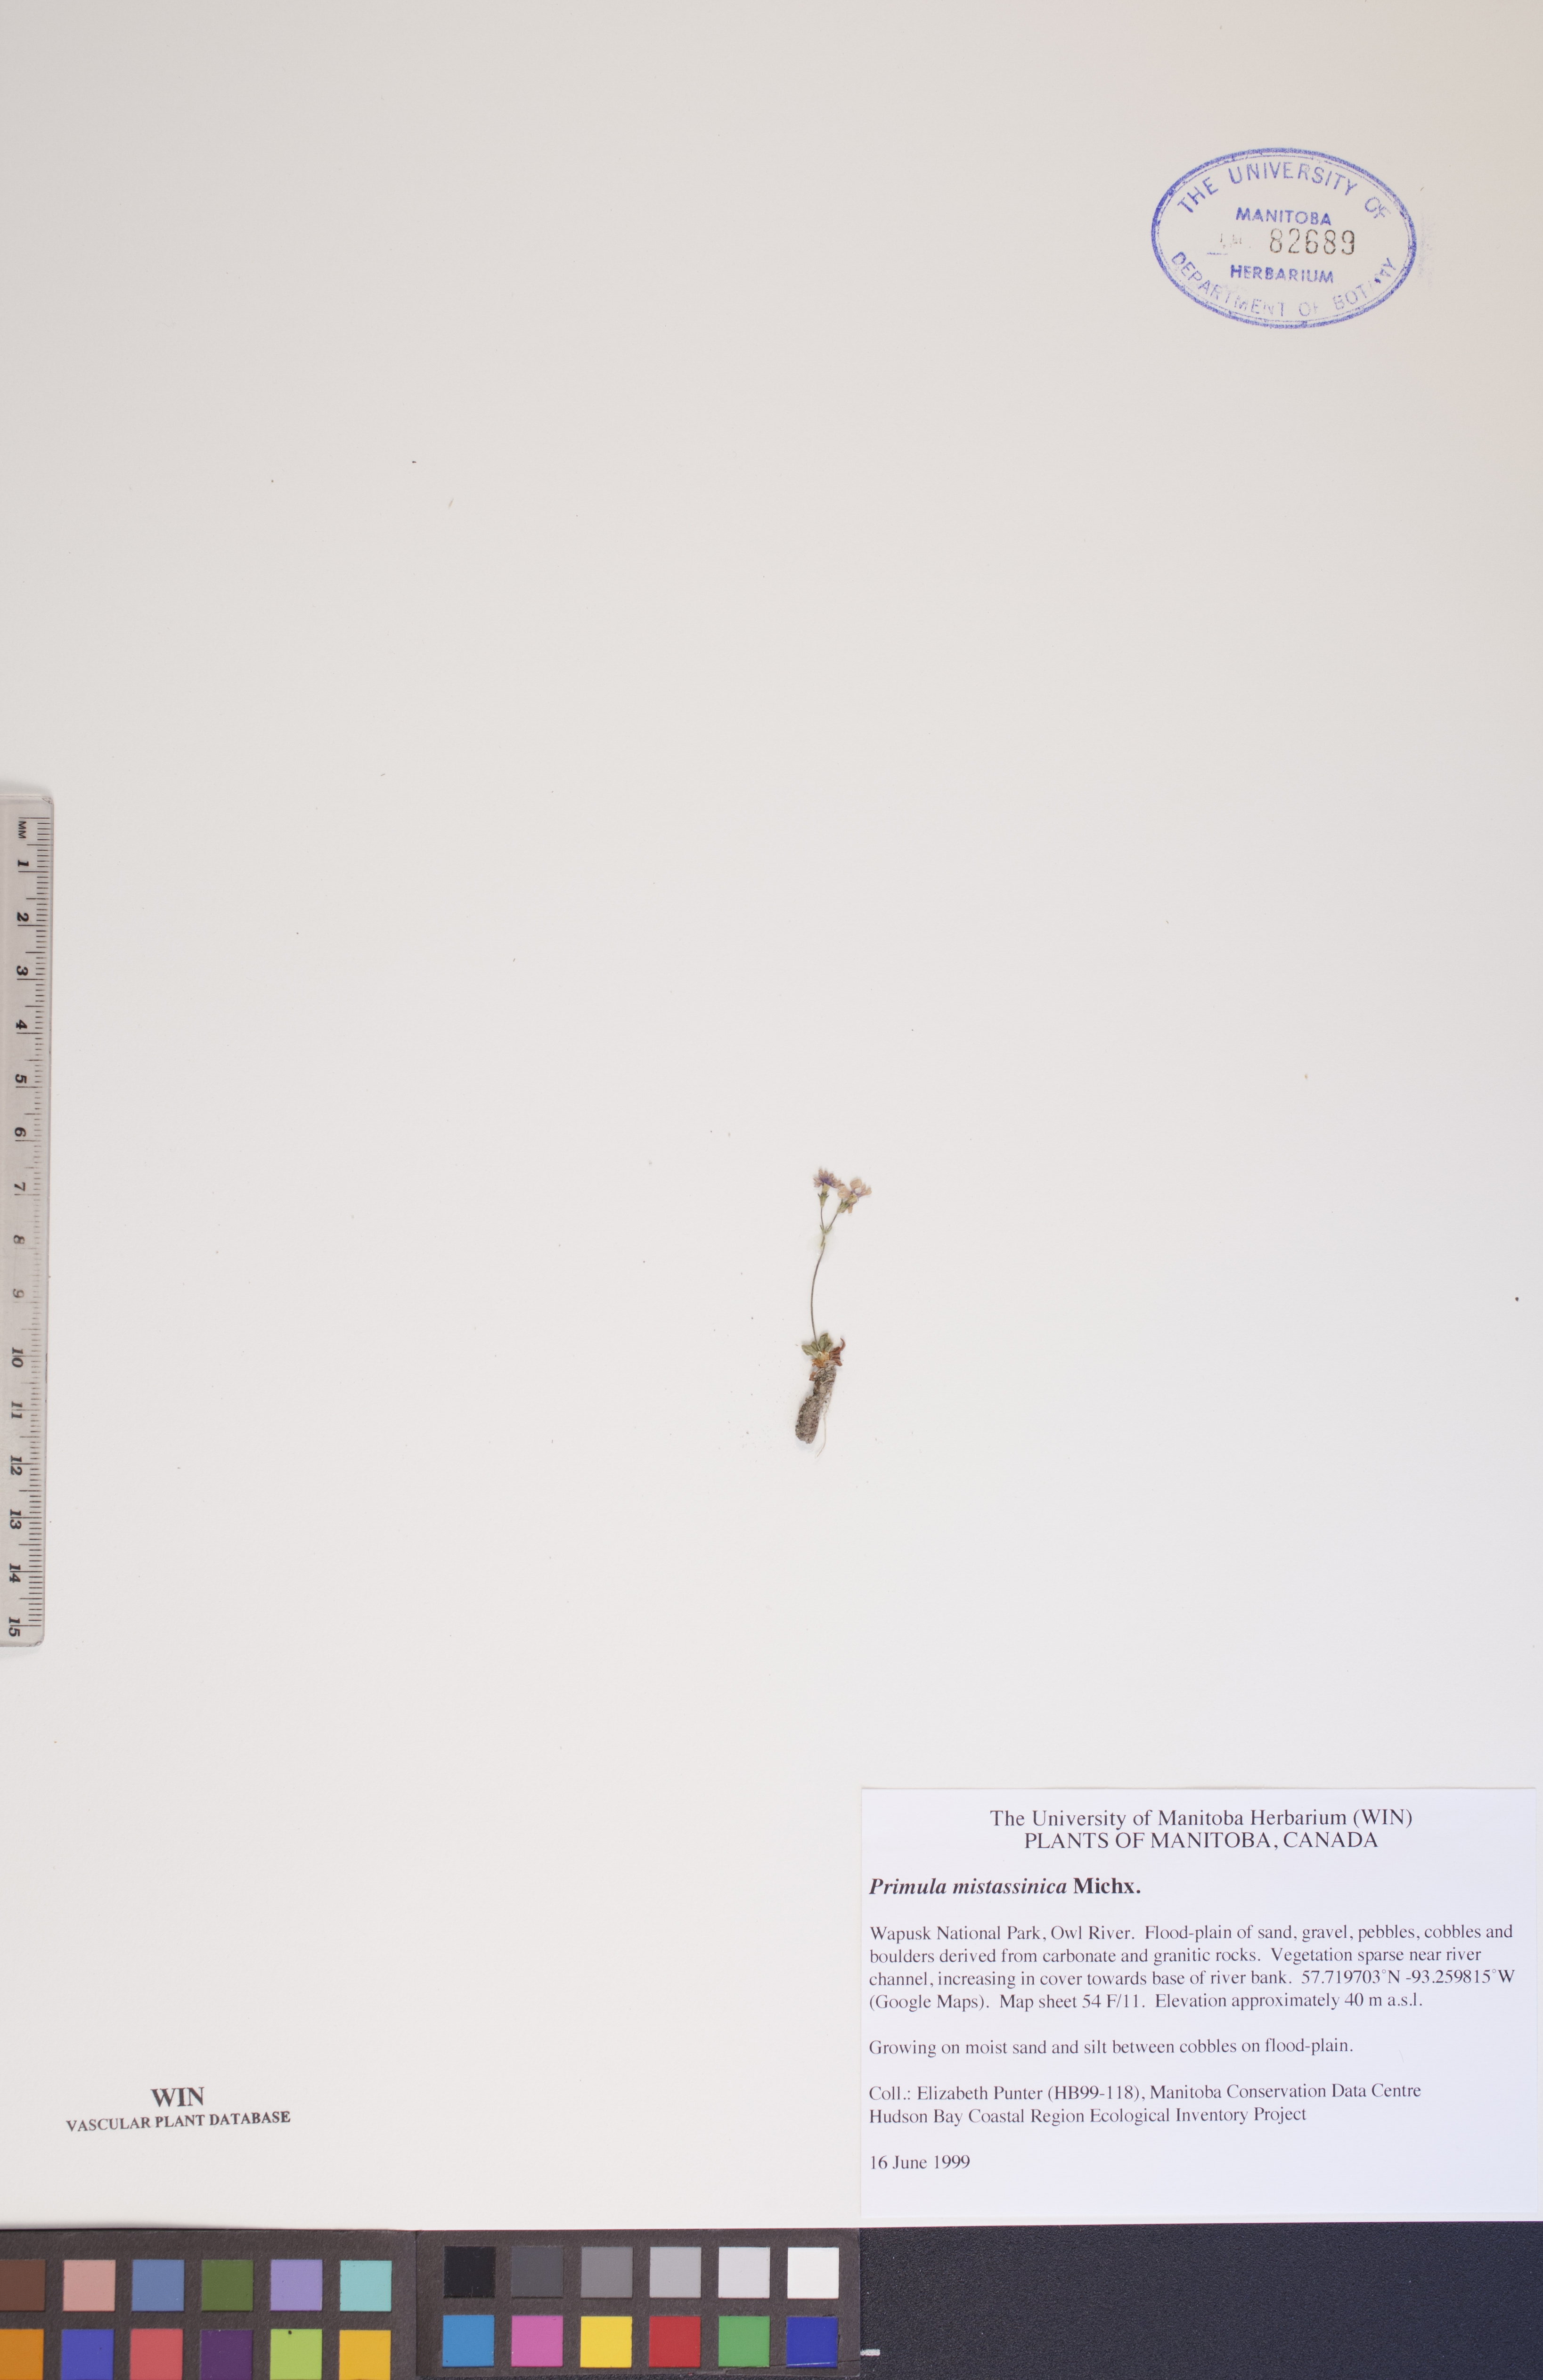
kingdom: Plantae
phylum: Tracheophyta
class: Magnoliopsida
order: Ericales
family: Primulaceae
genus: Primula
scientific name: Primula mistassinica
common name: Bird's-eye primrose
